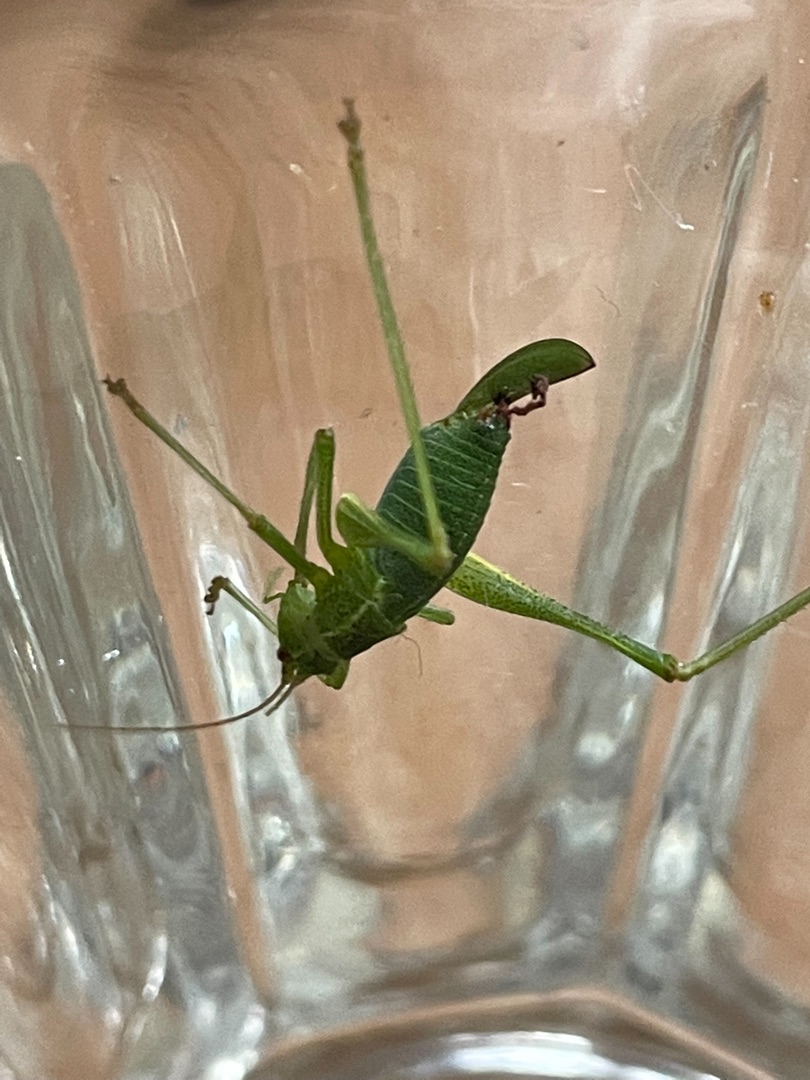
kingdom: Animalia
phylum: Arthropoda
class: Insecta
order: Orthoptera
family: Tettigoniidae
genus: Leptophyes
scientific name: Leptophyes punctatissima
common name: Krumknivgræshoppe
